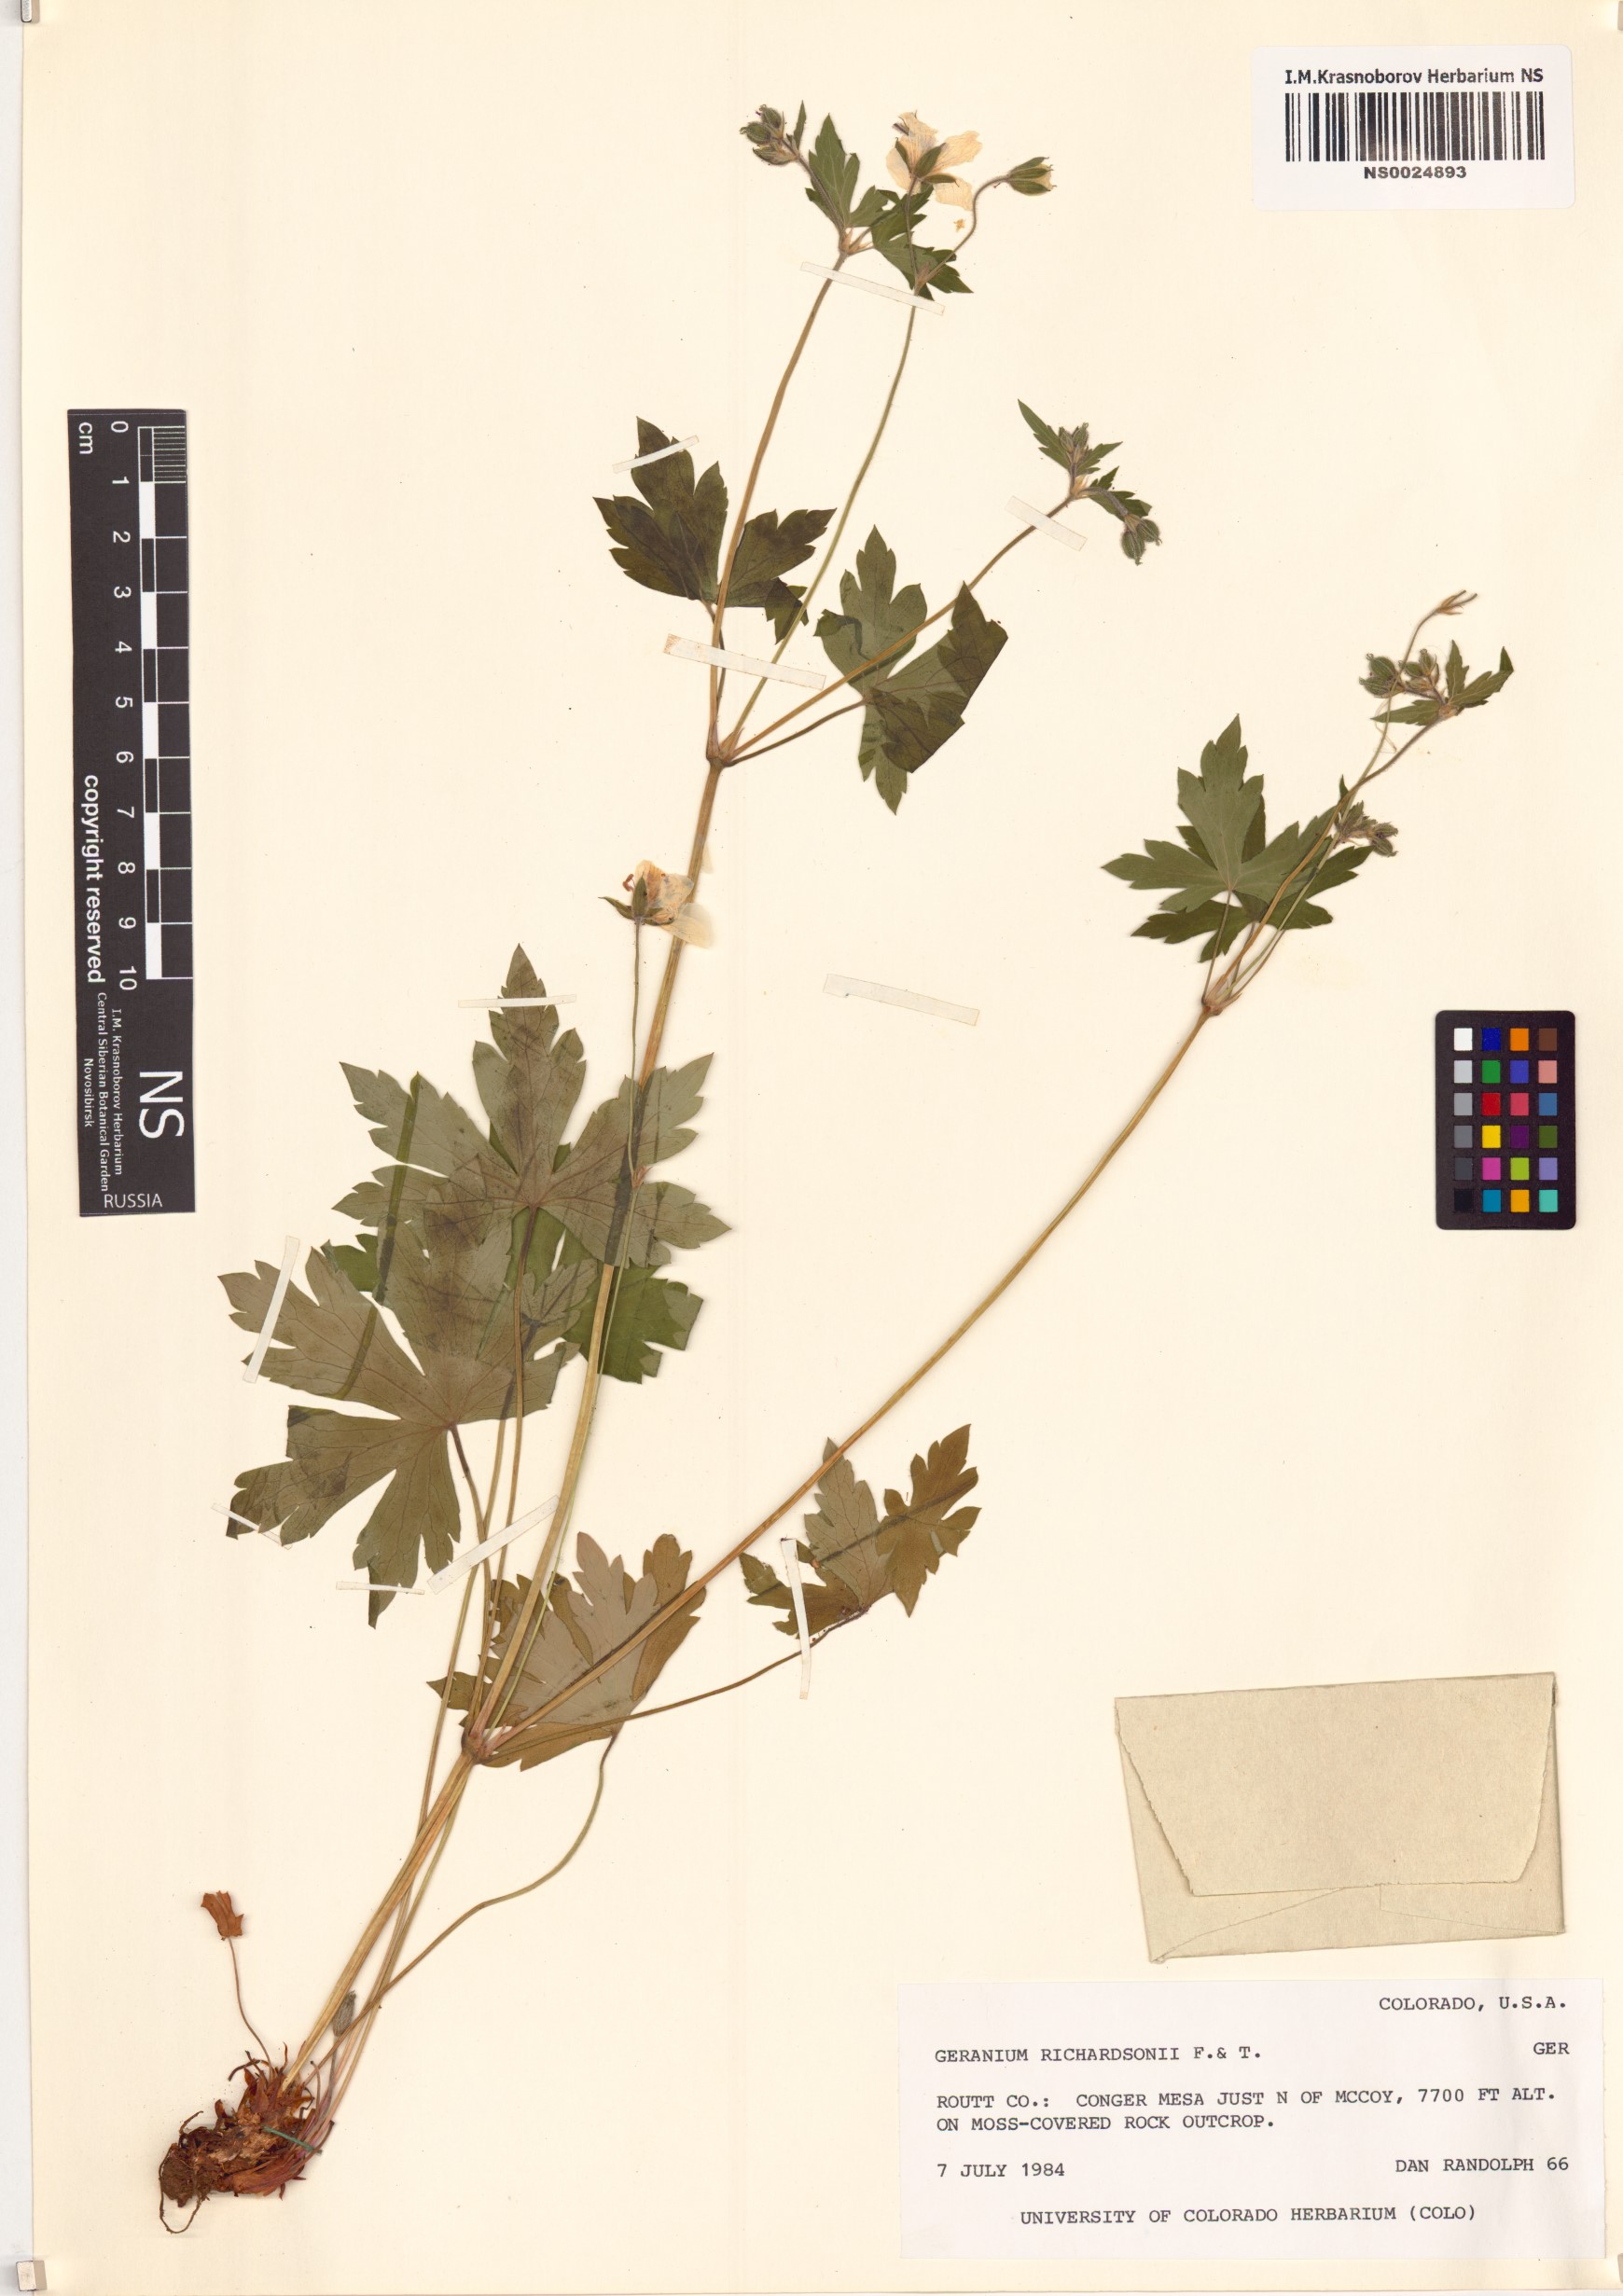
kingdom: Plantae
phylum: Tracheophyta
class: Magnoliopsida
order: Geraniales
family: Geraniaceae
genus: Geranium
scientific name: Geranium richardsonii
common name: Richardson's crane's-bill
